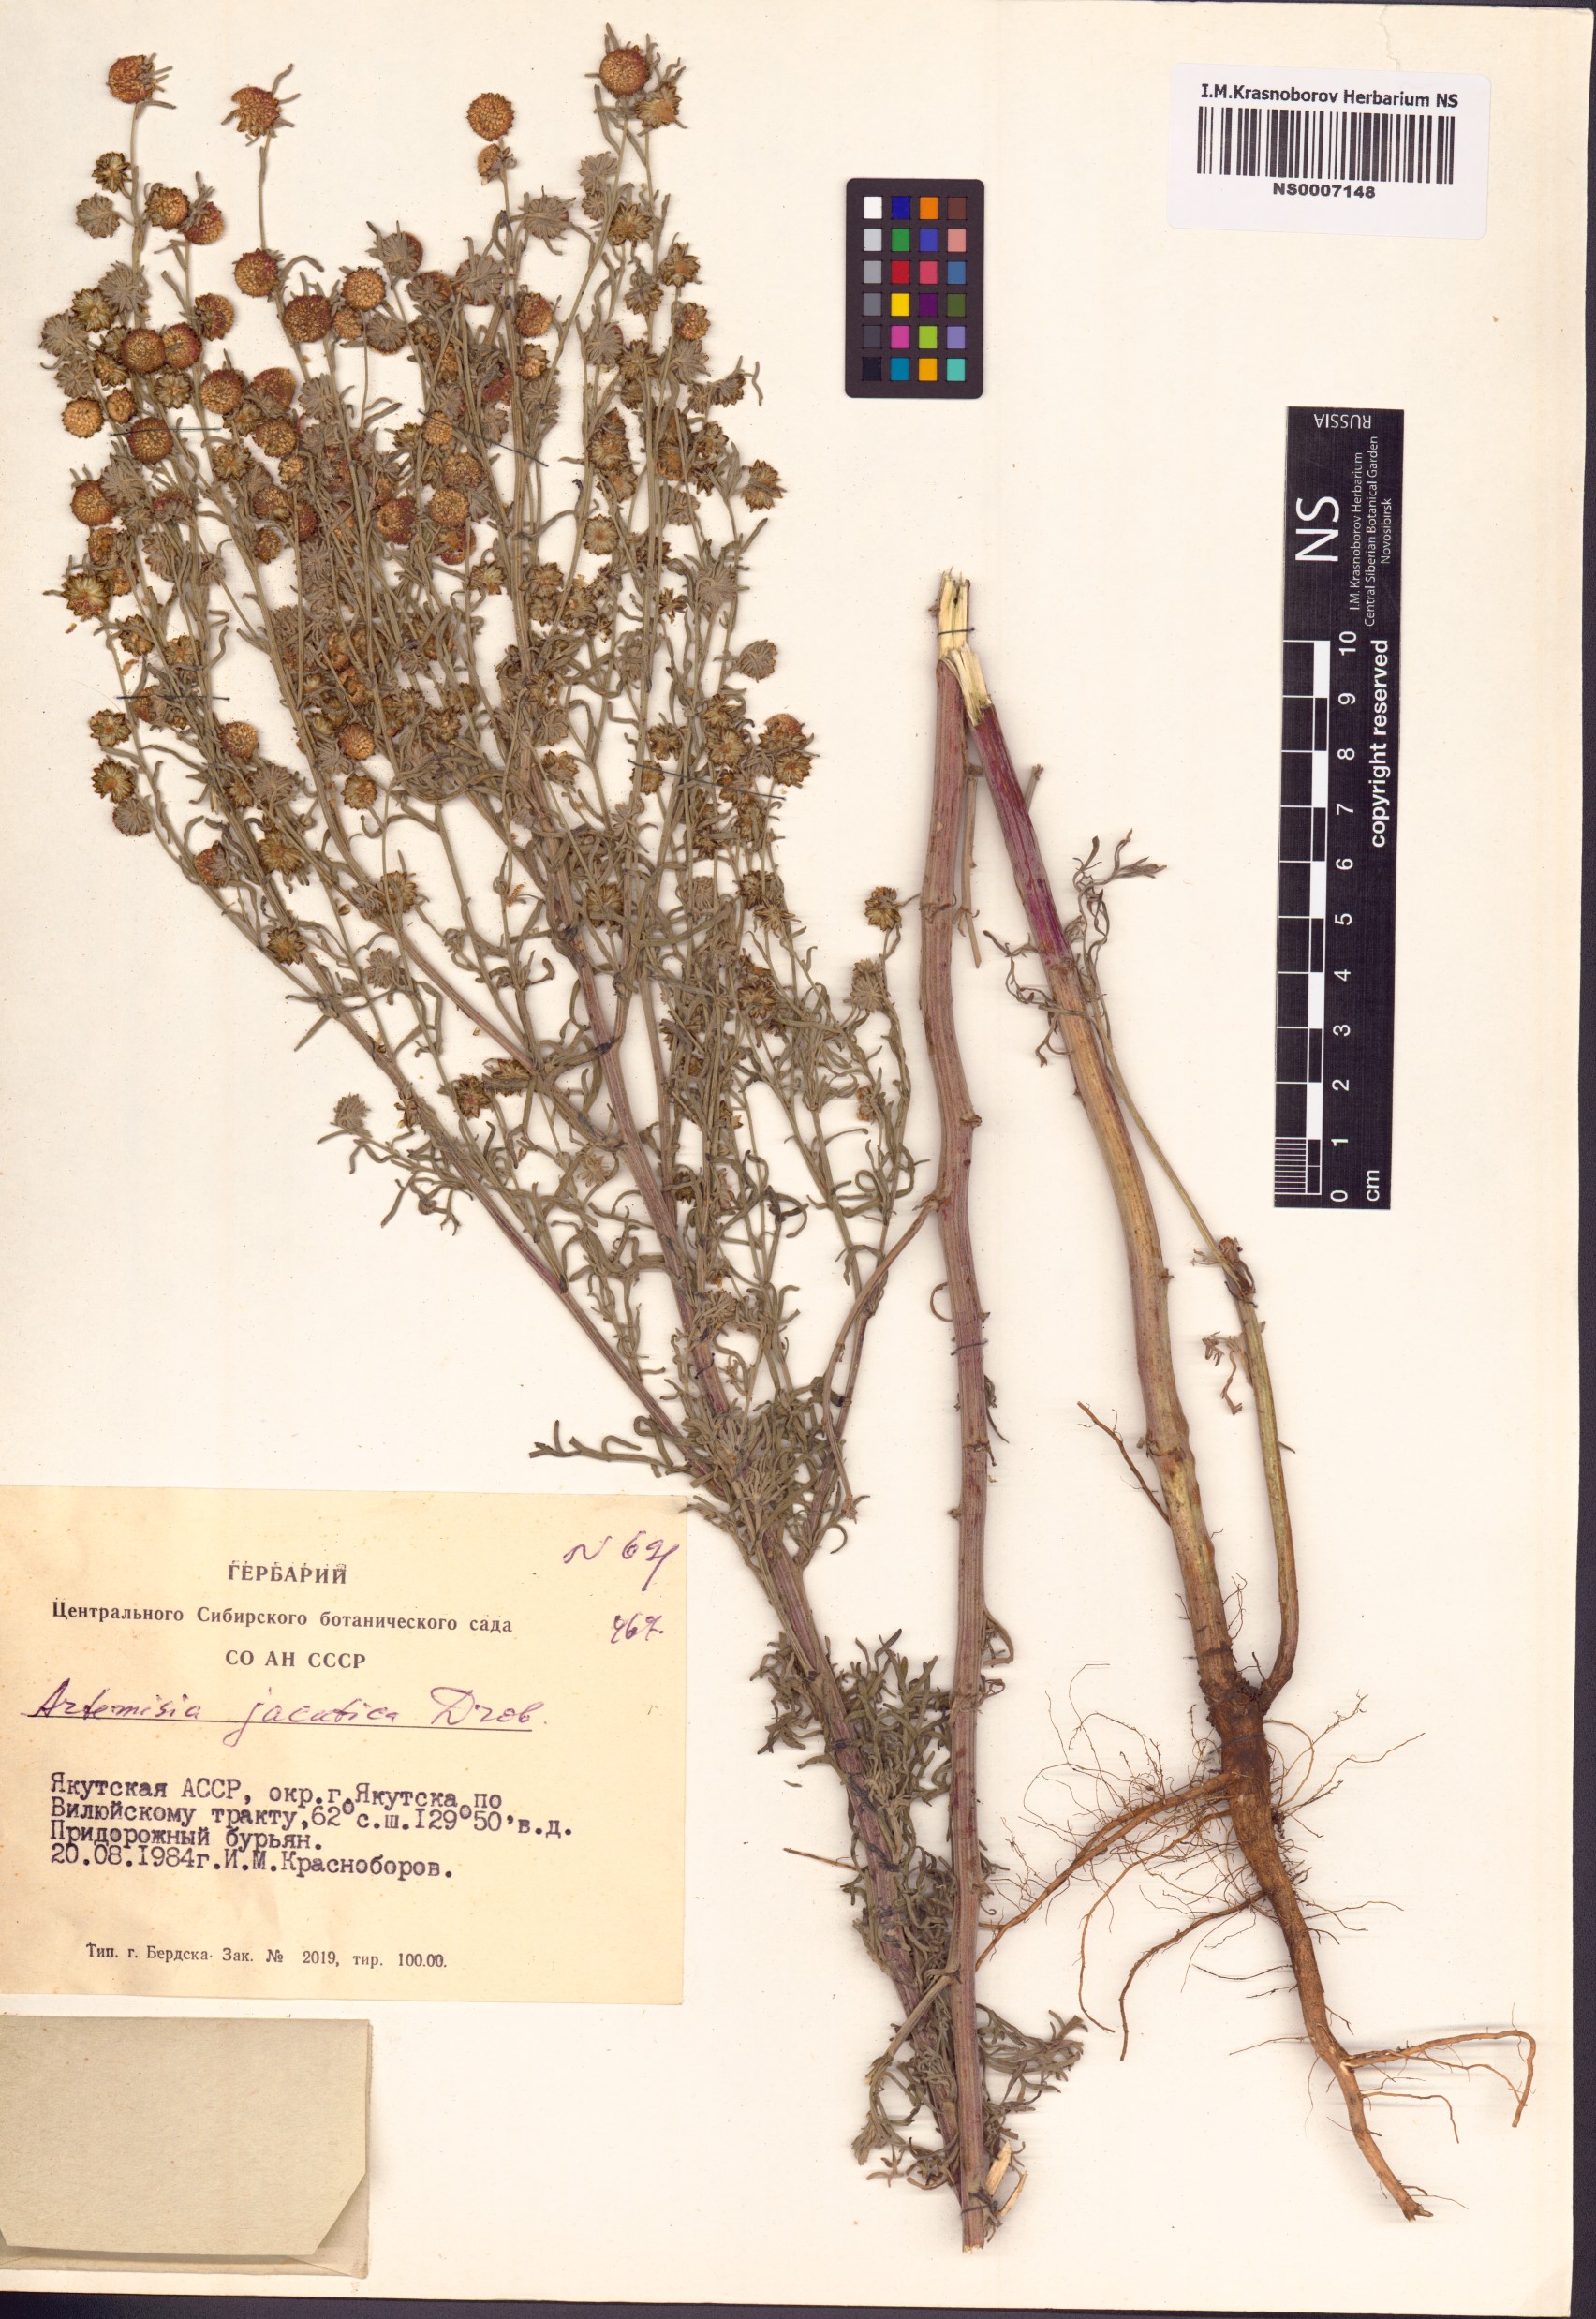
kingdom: Plantae
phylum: Tracheophyta
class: Magnoliopsida
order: Asterales
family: Asteraceae
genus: Artemisia
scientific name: Artemisia jacutica
